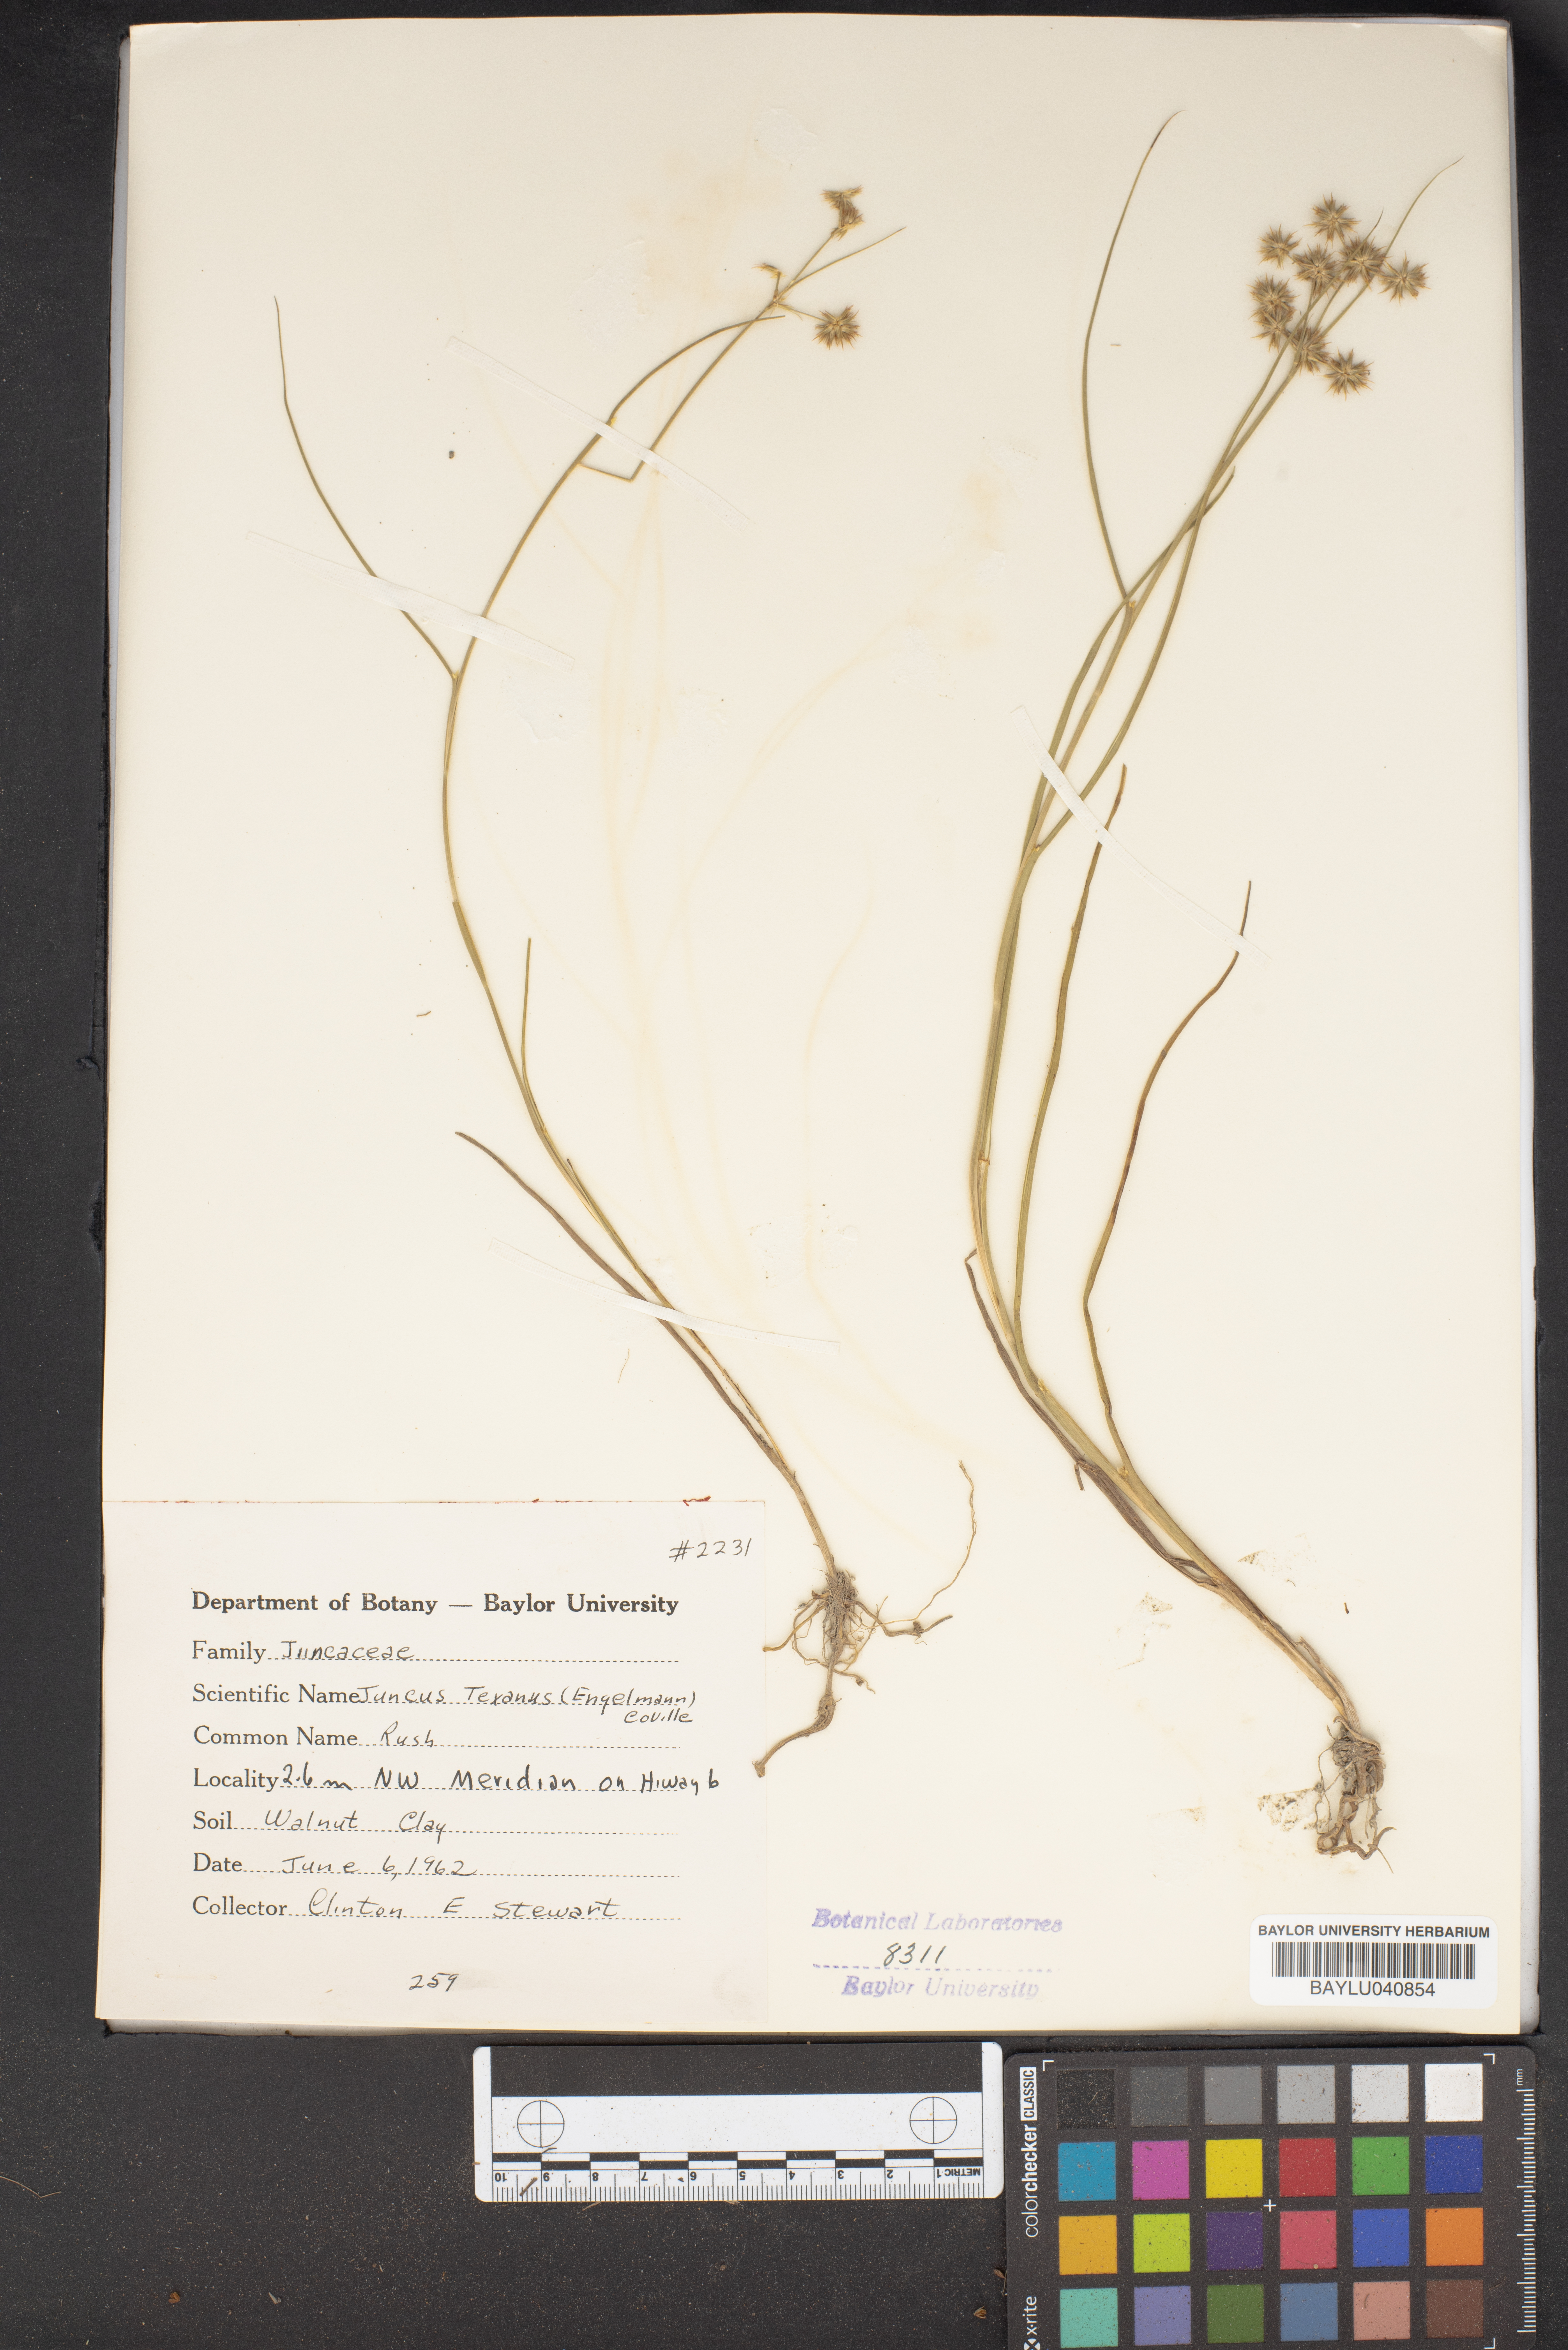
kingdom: Plantae
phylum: Tracheophyta
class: Liliopsida
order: Poales
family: Juncaceae
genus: Juncus
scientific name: Juncus texanus
